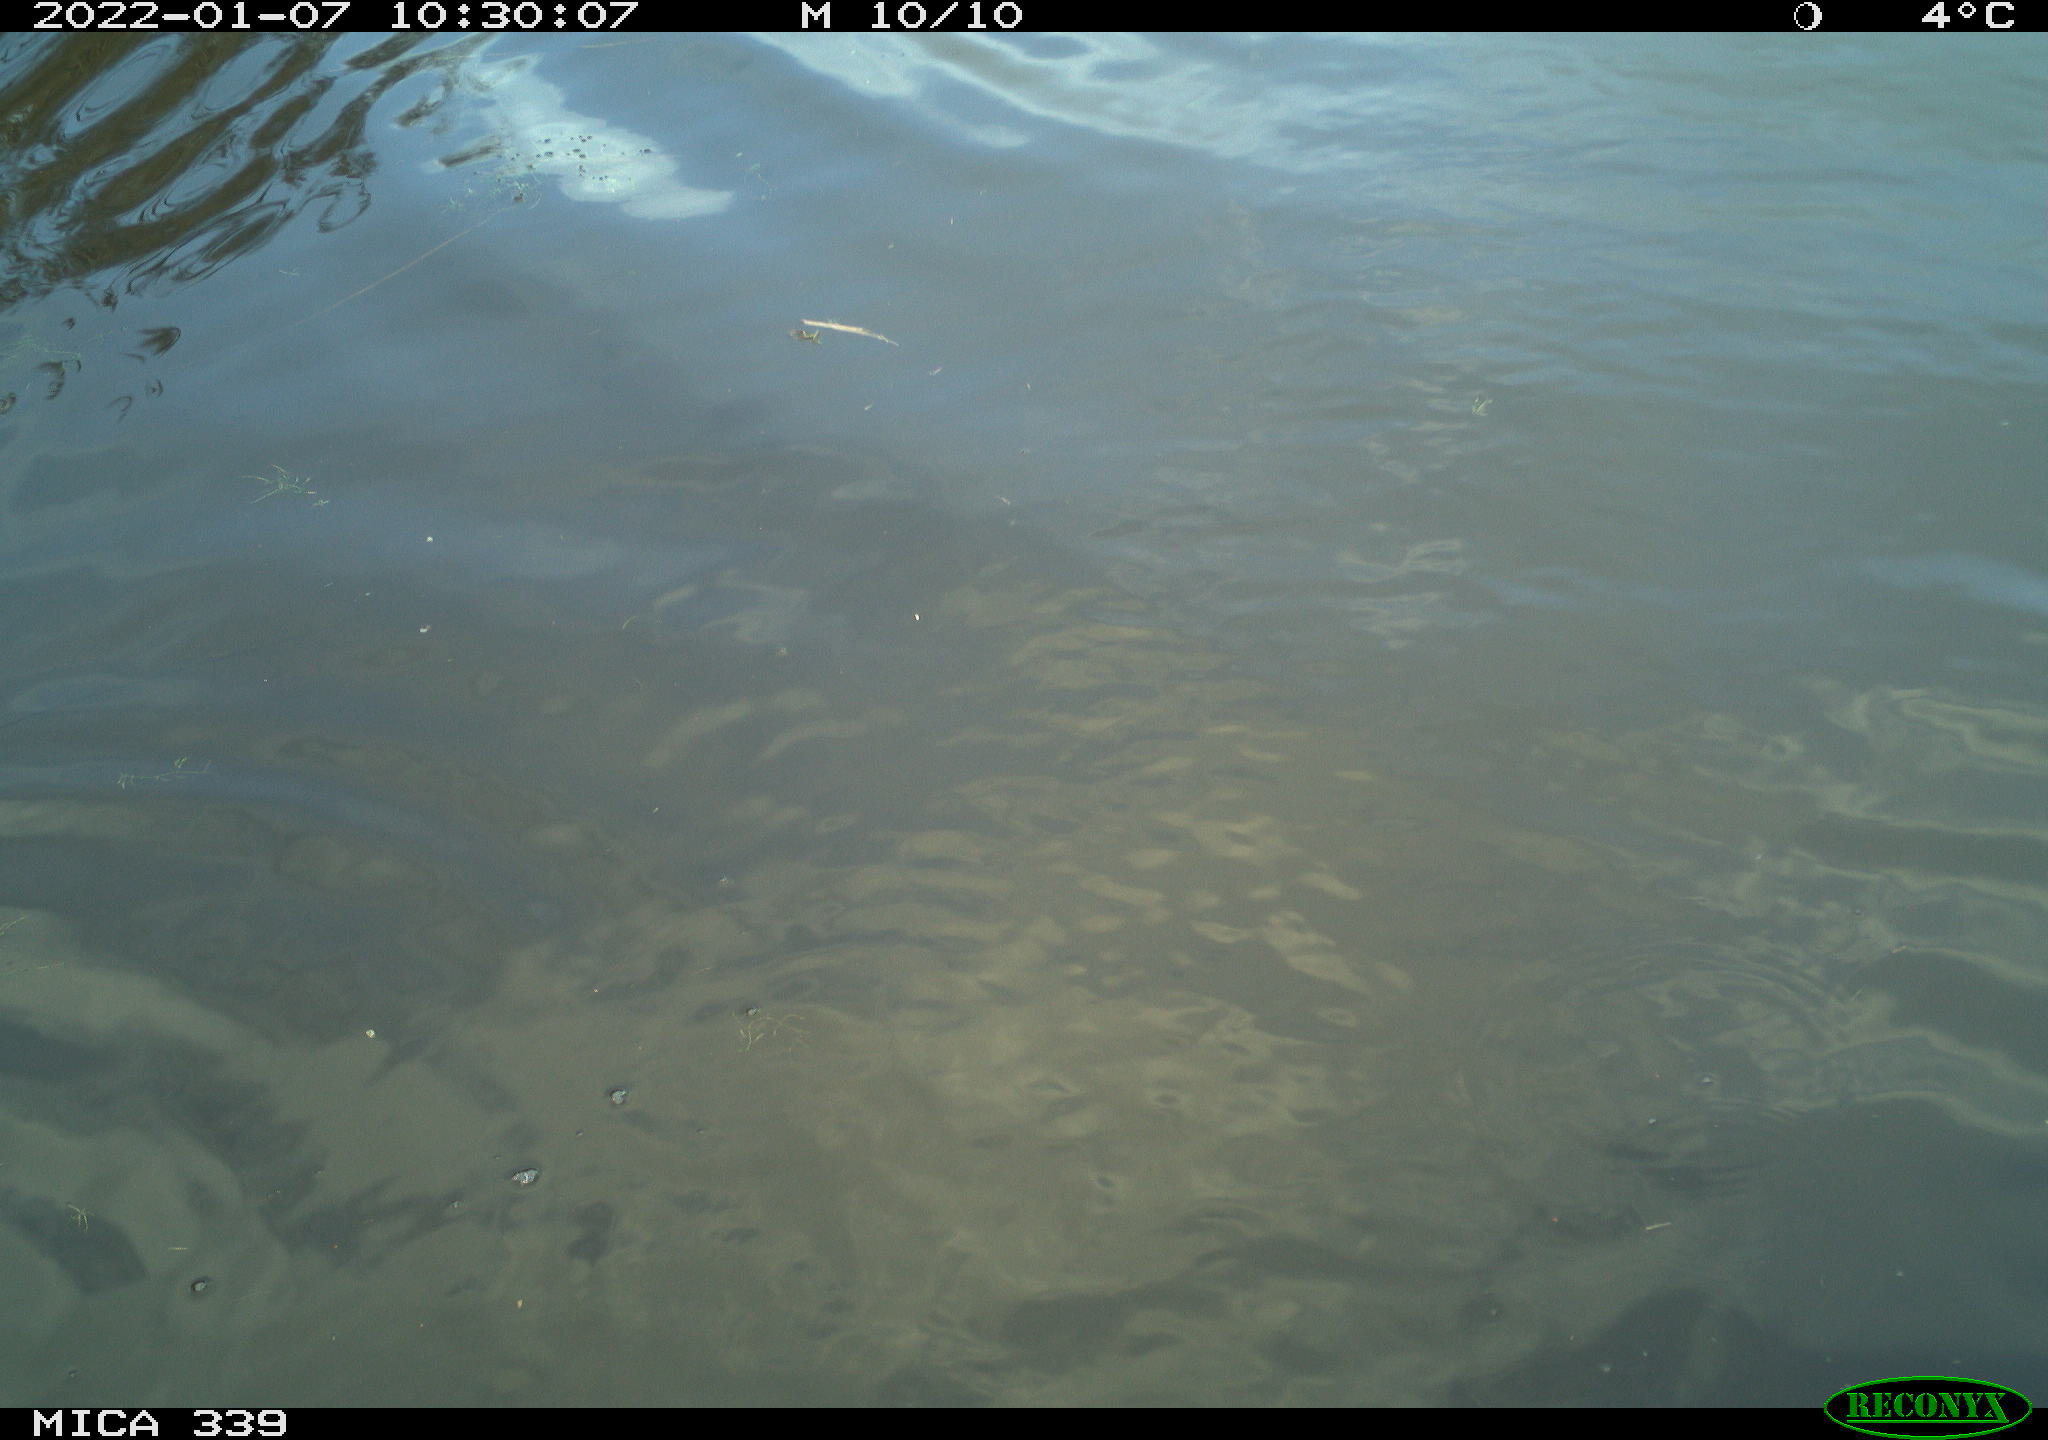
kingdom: Animalia
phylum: Chordata
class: Aves
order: Anseriformes
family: Anatidae
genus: Cygnus
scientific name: Cygnus olor
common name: Mute swan
